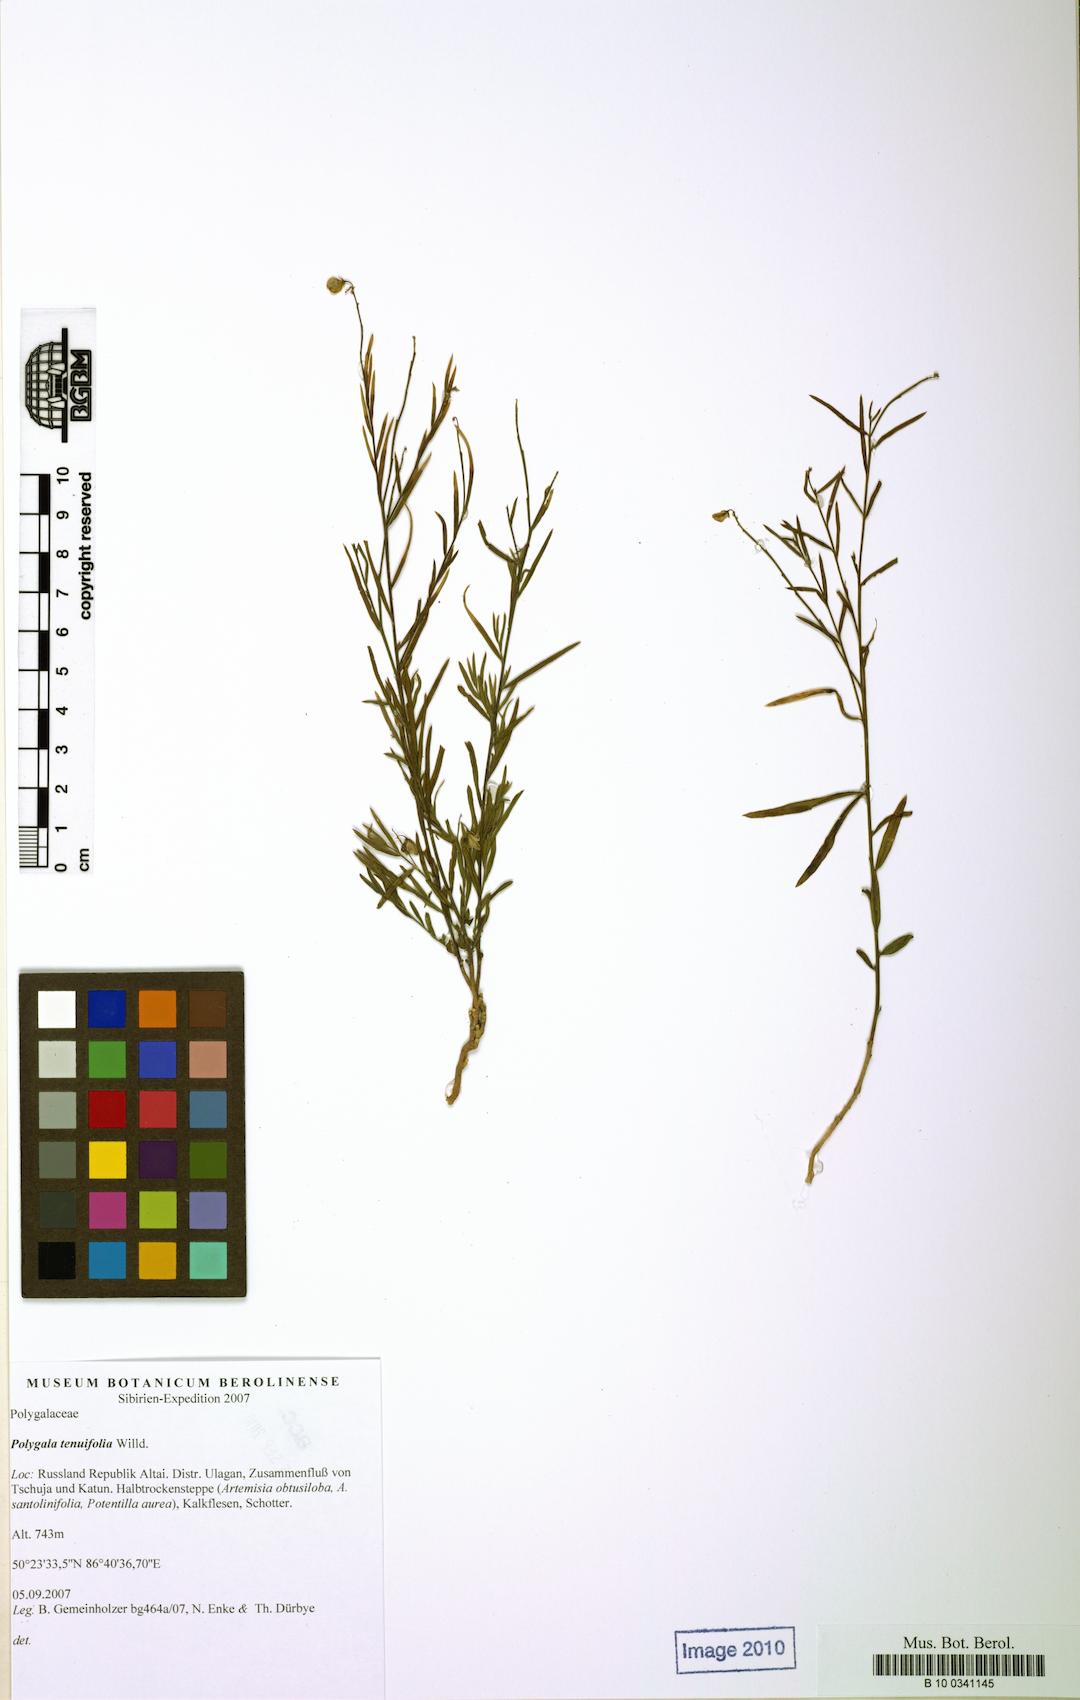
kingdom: Plantae
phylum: Tracheophyta
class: Magnoliopsida
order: Fabales
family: Polygalaceae
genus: Polygala
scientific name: Polygala tenuifolia
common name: Chinese senega-root
